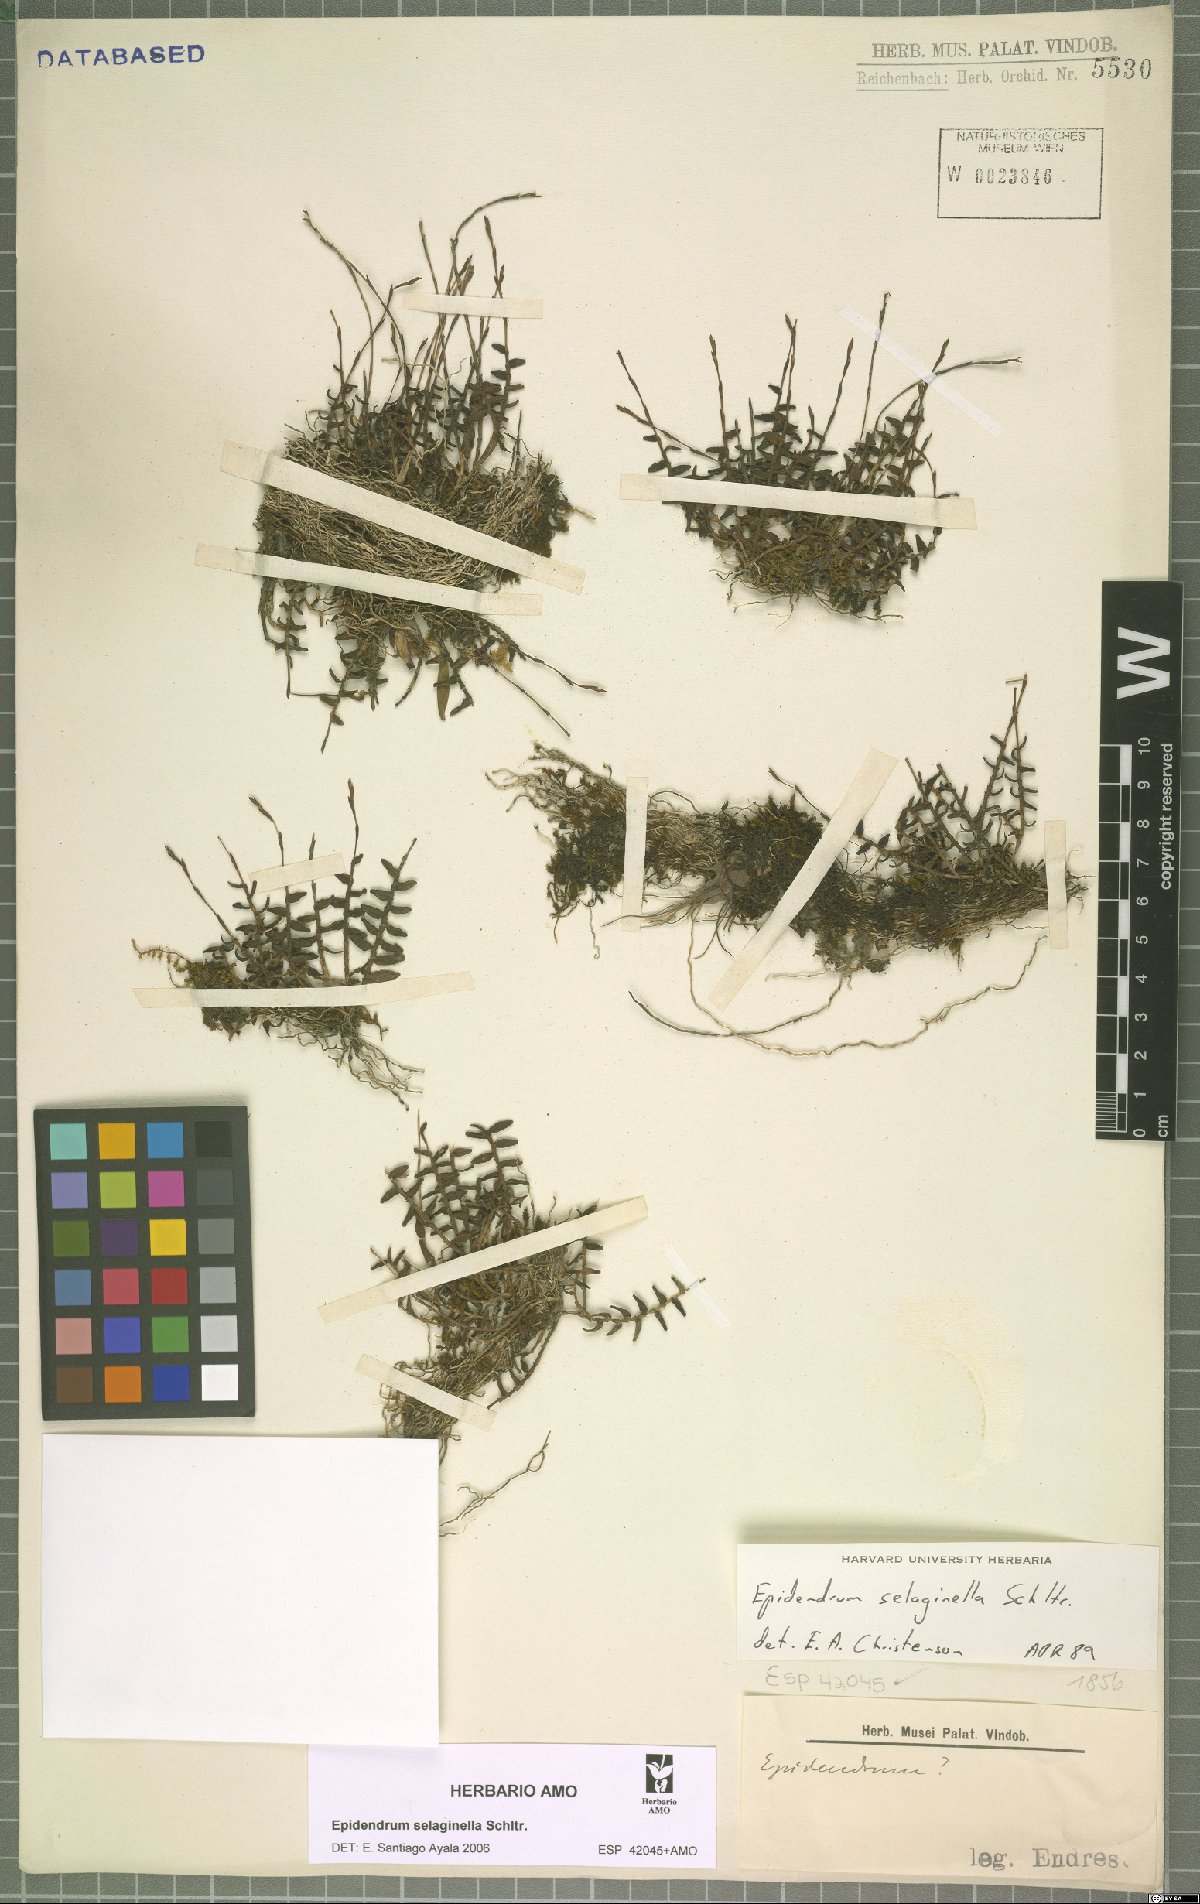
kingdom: Plantae
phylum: Tracheophyta
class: Liliopsida
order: Asparagales
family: Orchidaceae
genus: Epidendrum
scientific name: Epidendrum selaginella
